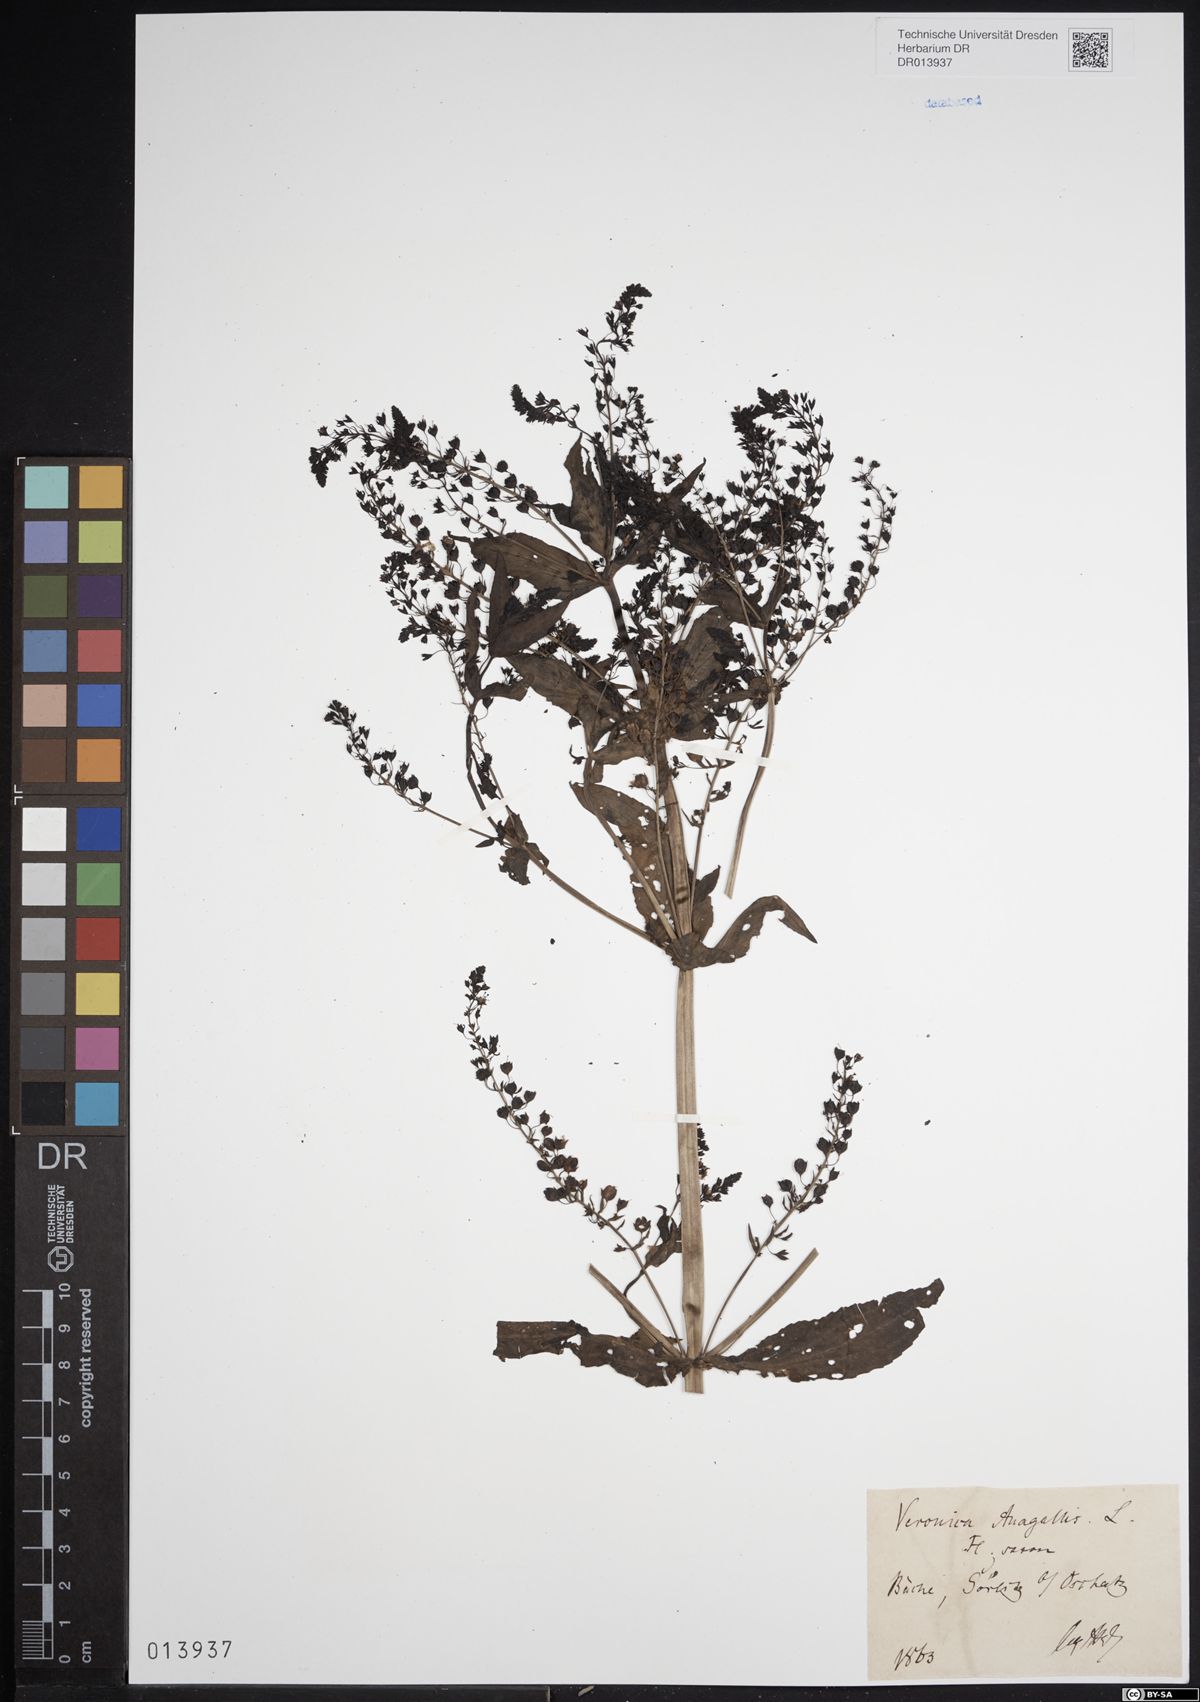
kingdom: Plantae
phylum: Tracheophyta
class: Magnoliopsida
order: Lamiales
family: Plantaginaceae
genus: Veronica
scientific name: Veronica anagallis-aquatica
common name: Water speedwell
